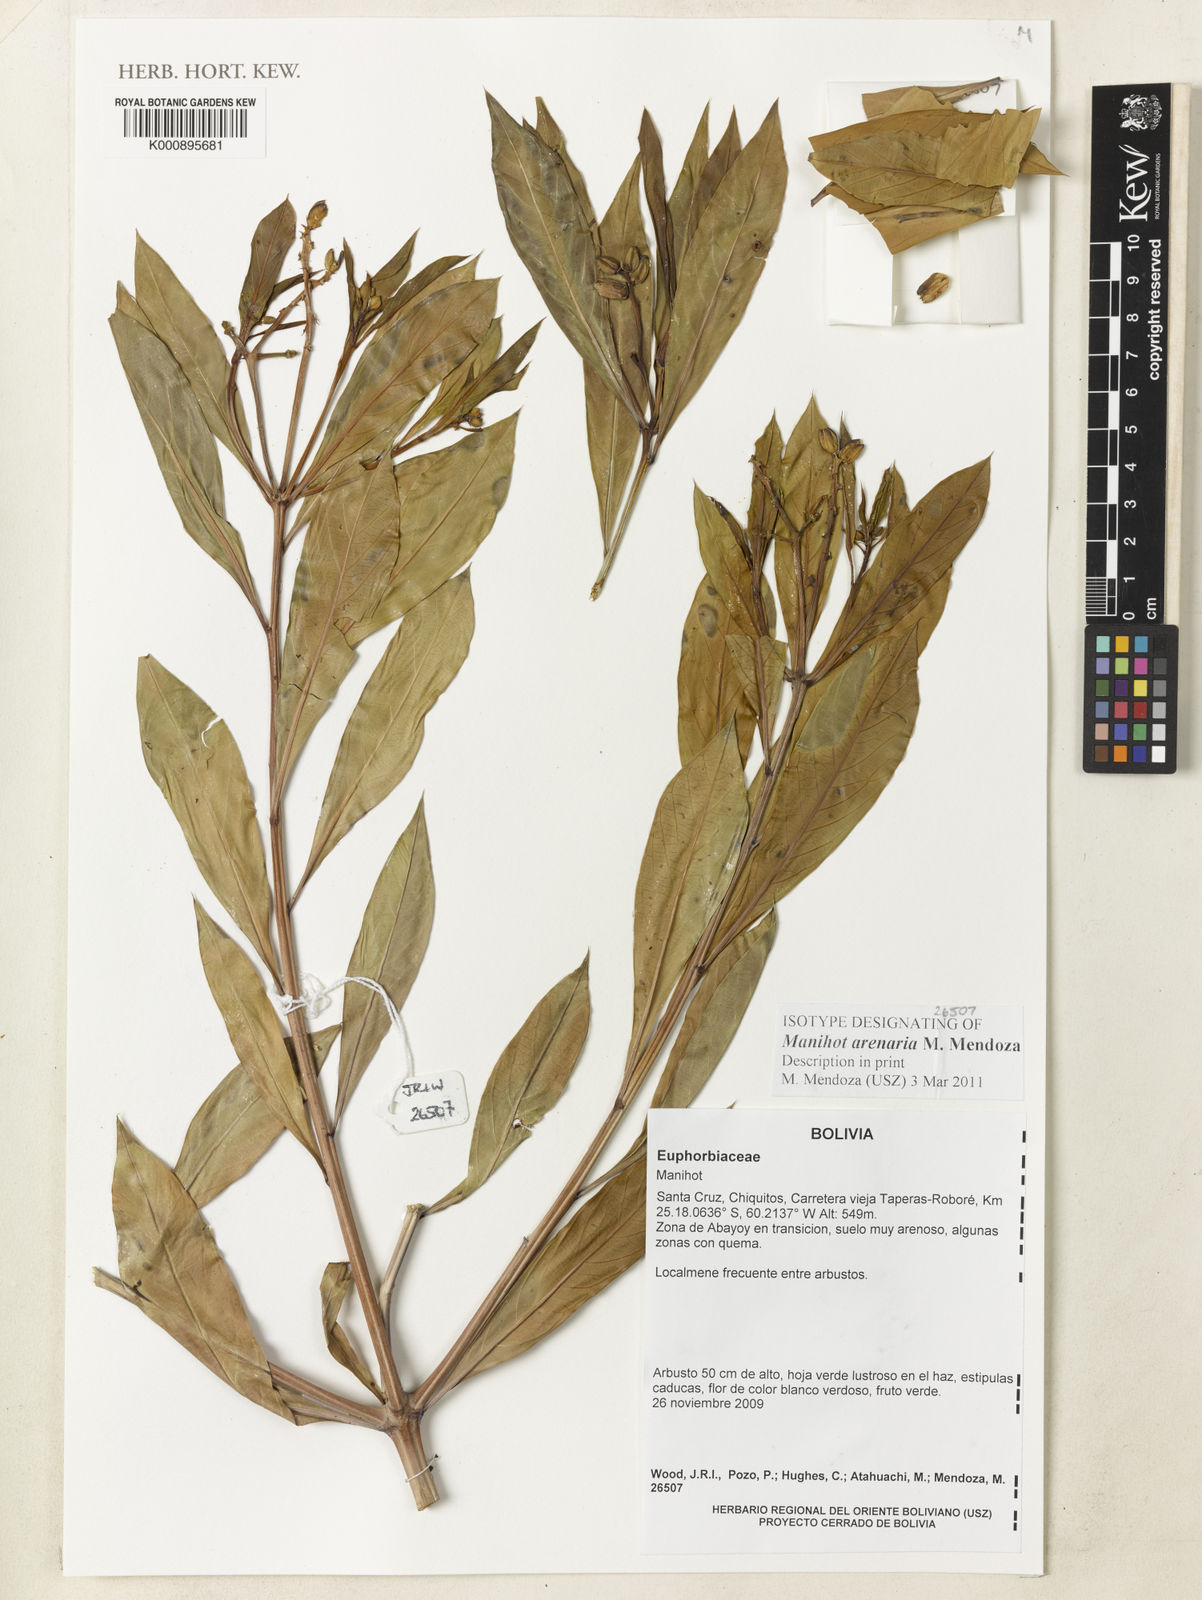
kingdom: Plantae
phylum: Tracheophyta
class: Magnoliopsida
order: Malpighiales
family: Euphorbiaceae
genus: Manihot
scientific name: Manihot arenaria
